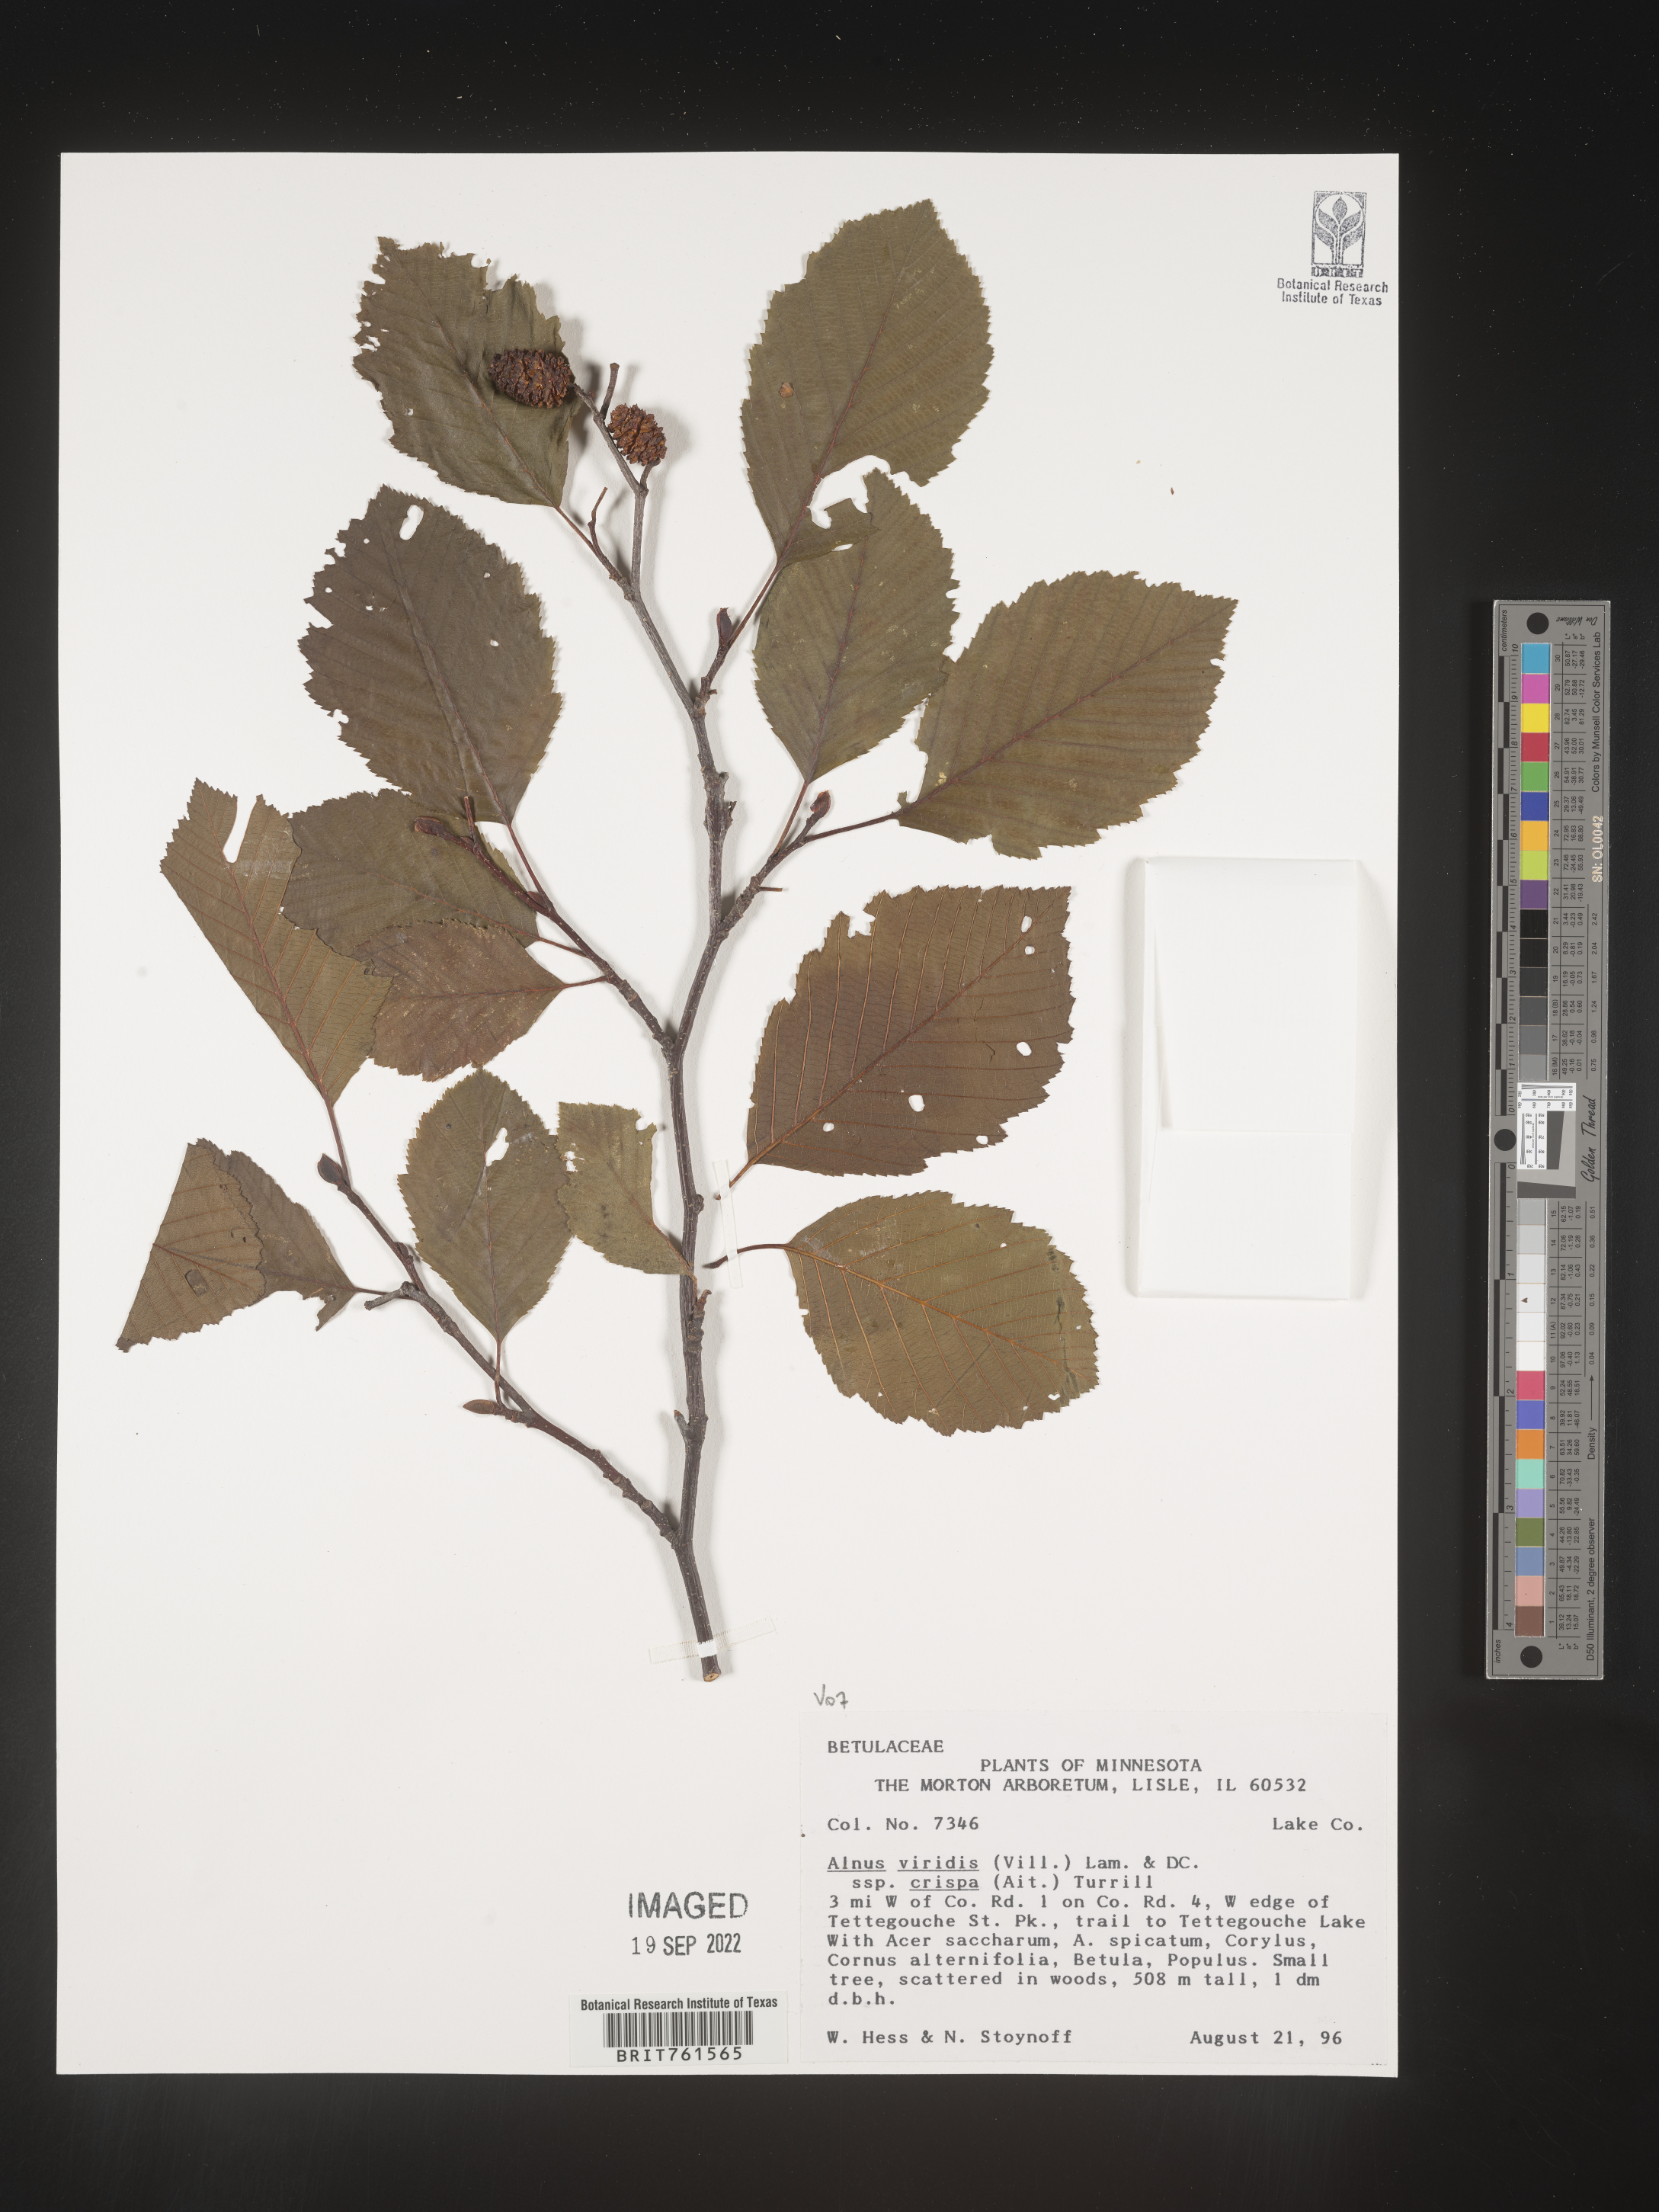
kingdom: Plantae
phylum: Tracheophyta
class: Magnoliopsida
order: Fagales
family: Betulaceae
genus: Alnus
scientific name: Alnus alnobetula
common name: Green alder
